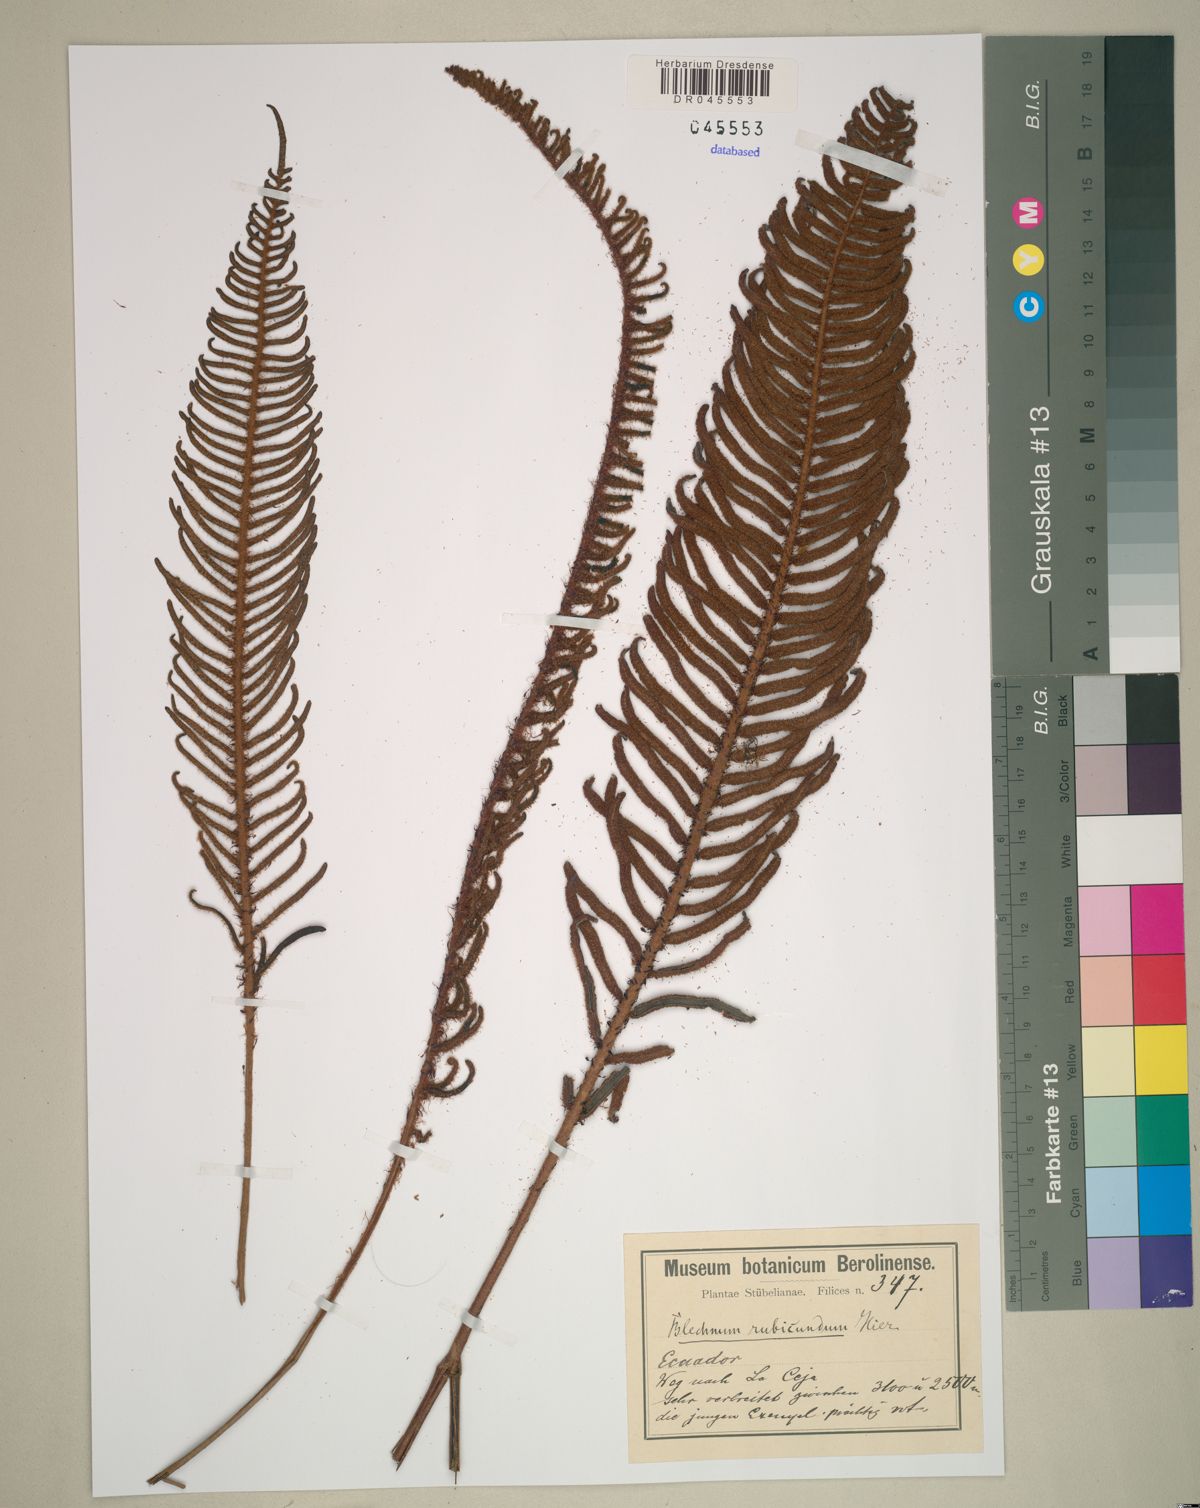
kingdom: Plantae
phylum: Tracheophyta
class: Polypodiopsida
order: Polypodiales
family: Blechnaceae
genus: Parablechnum
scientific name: Parablechnum stipitellatum
